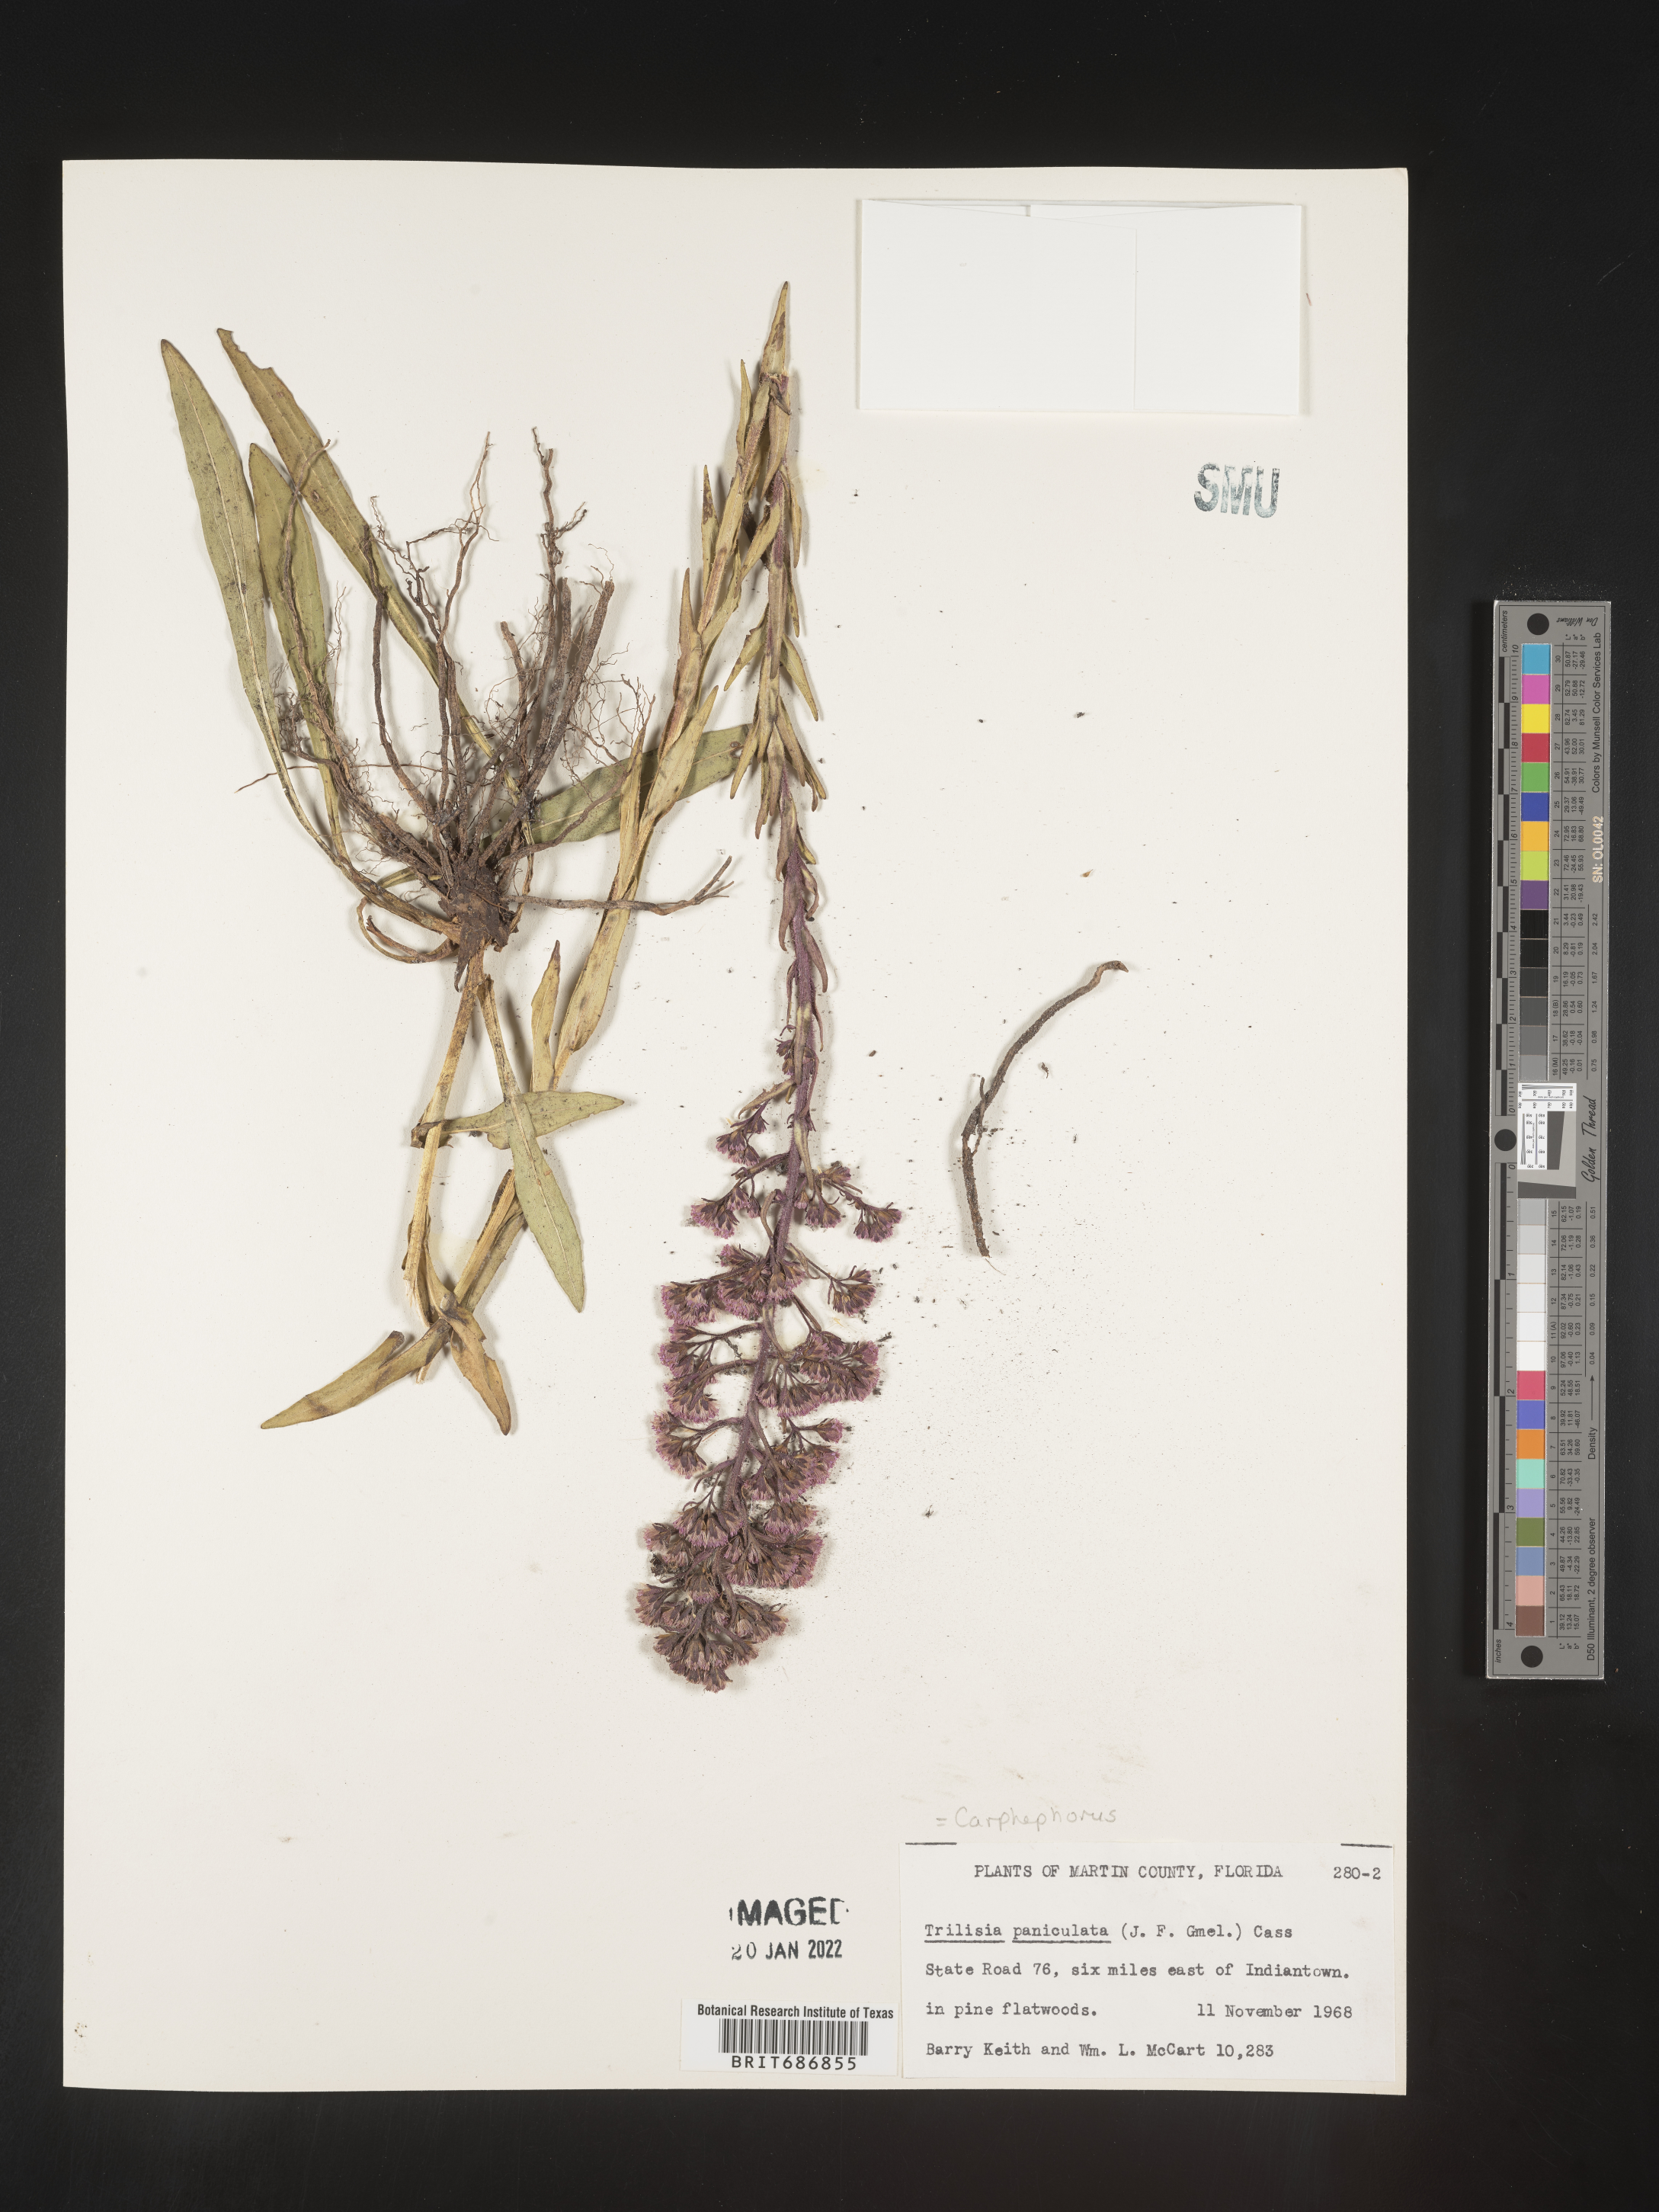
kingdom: Plantae
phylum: Tracheophyta
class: Magnoliopsida
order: Asterales
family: Asteraceae
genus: Carphephorus
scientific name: Carphephorus paniculatus
